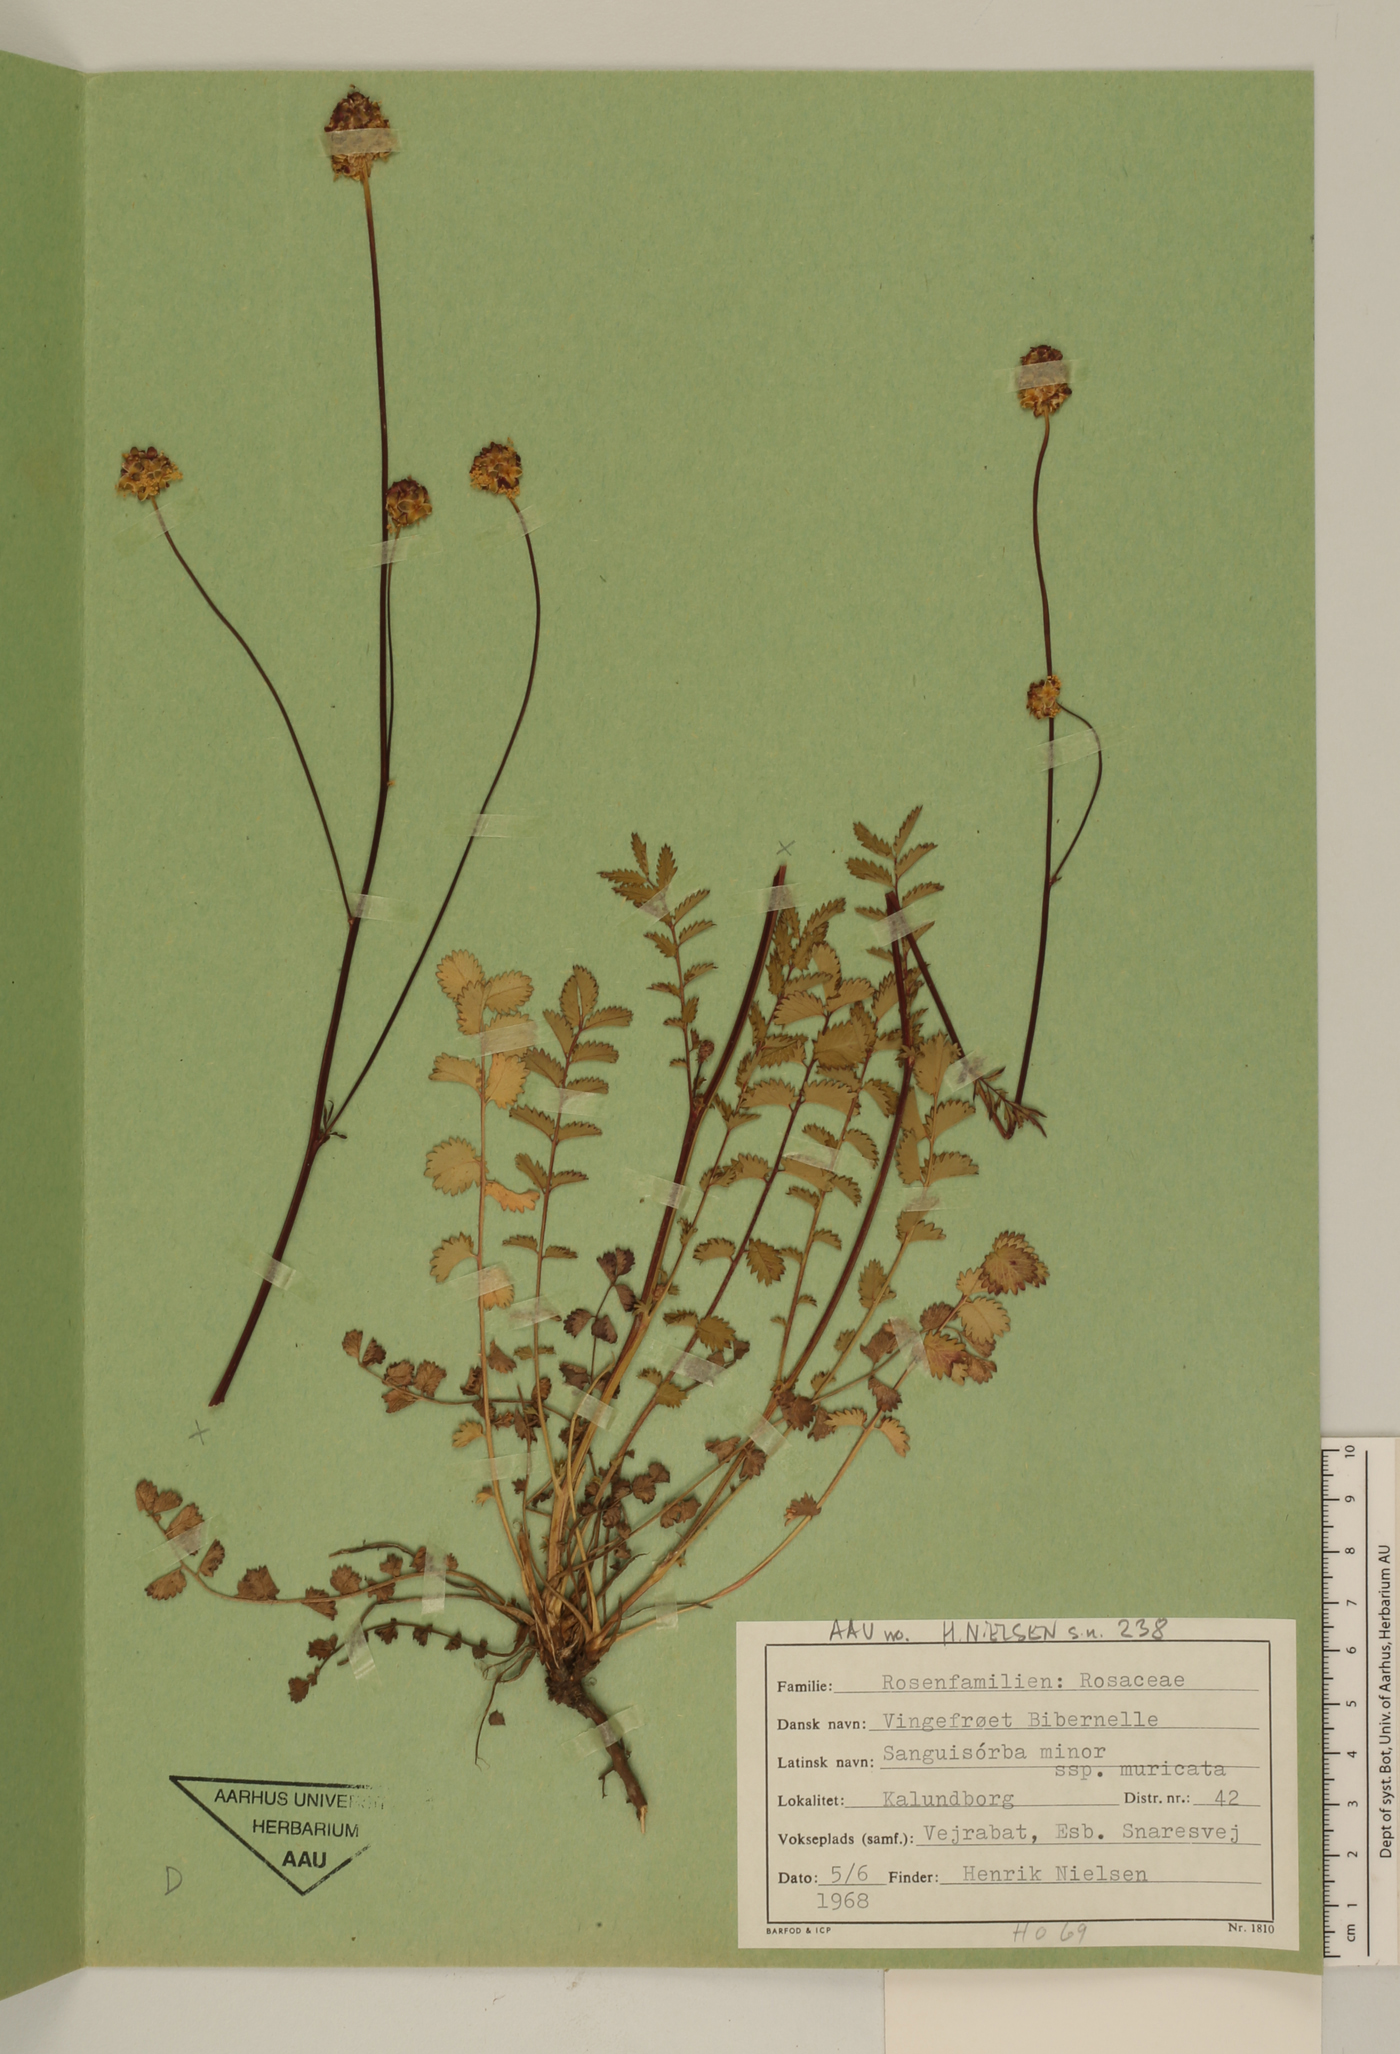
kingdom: Plantae
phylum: Tracheophyta
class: Magnoliopsida
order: Rosales
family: Rosaceae
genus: Poterium
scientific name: Poterium sanguisorba
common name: Salad burnet
